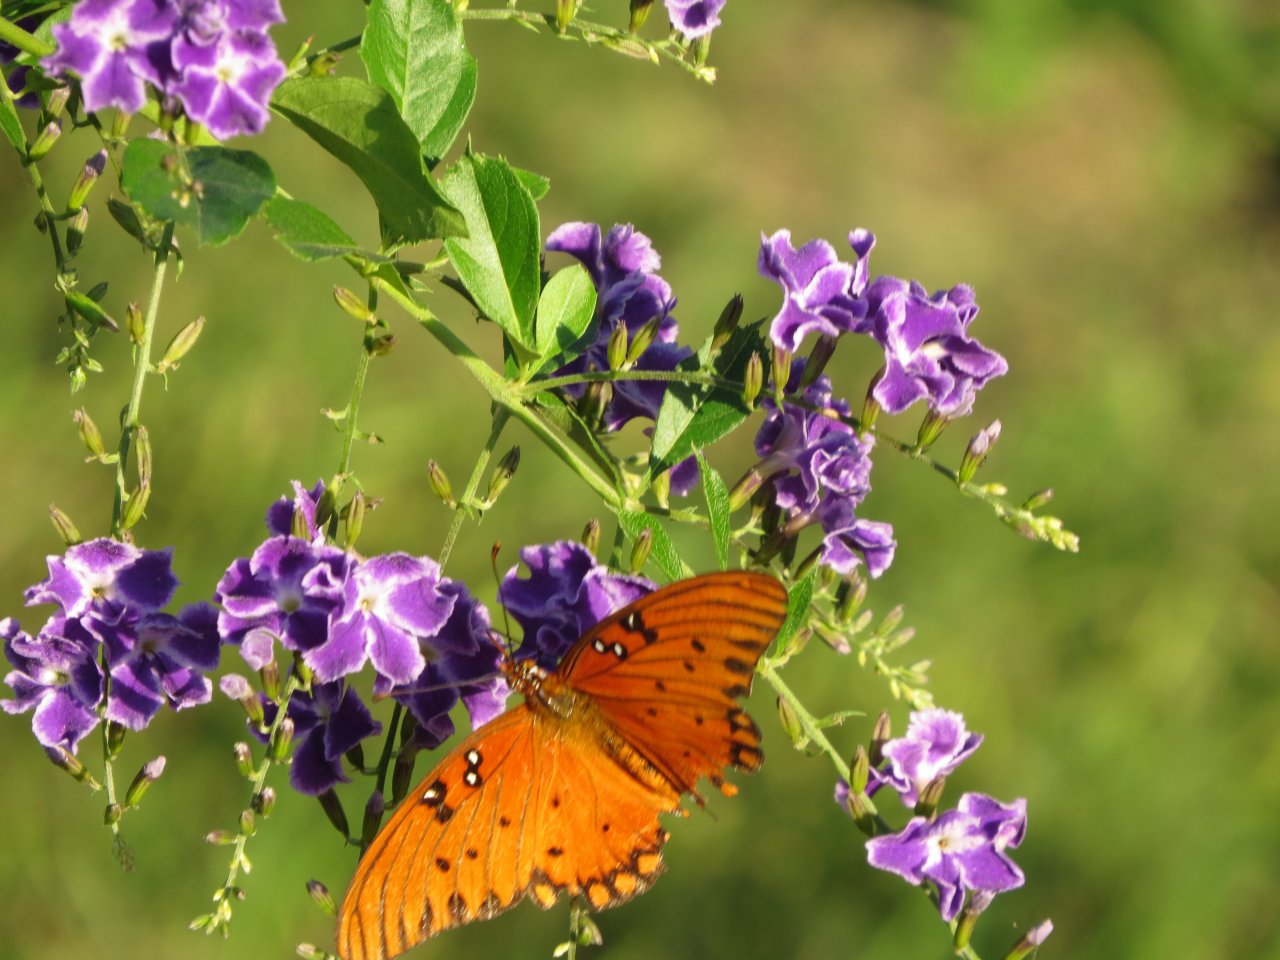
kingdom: Animalia
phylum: Arthropoda
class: Insecta
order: Lepidoptera
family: Nymphalidae
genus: Dione
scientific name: Dione vanillae
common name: Gulf Fritillary
